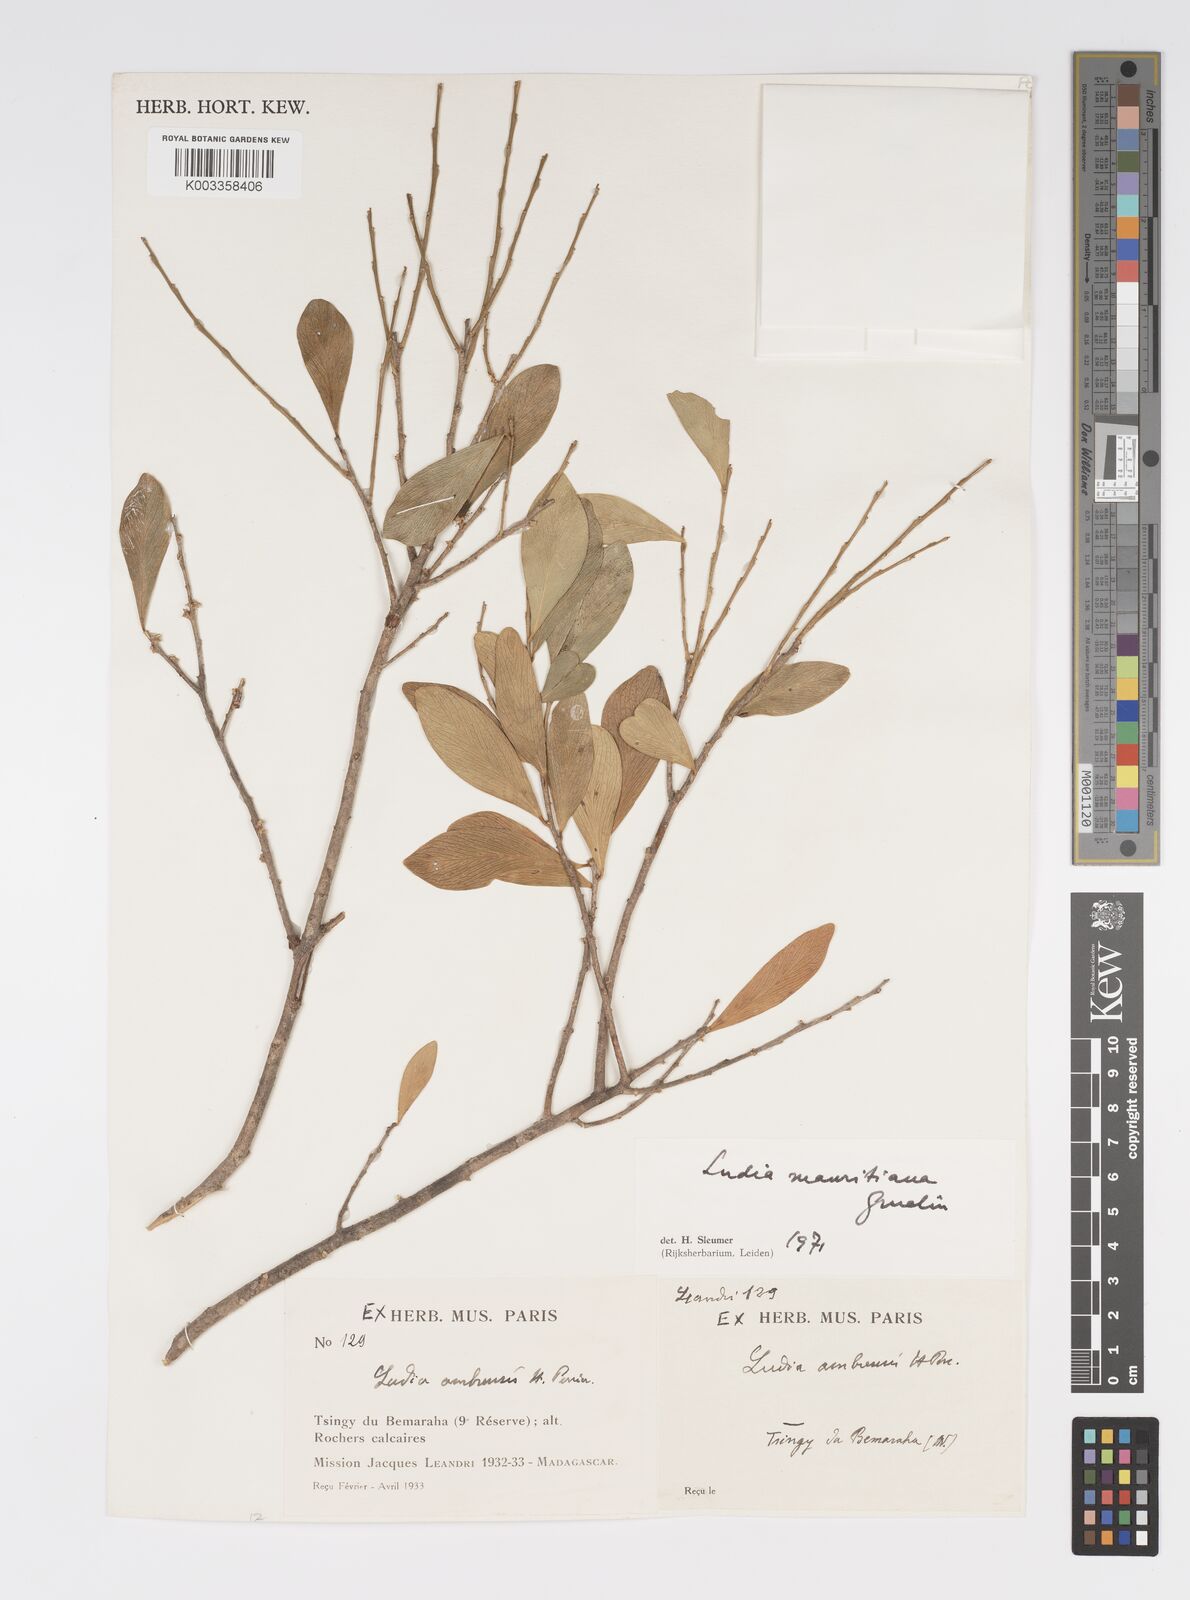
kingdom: Plantae
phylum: Tracheophyta
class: Magnoliopsida
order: Malpighiales
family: Salicaceae
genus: Ludia
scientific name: Ludia mauritiana
